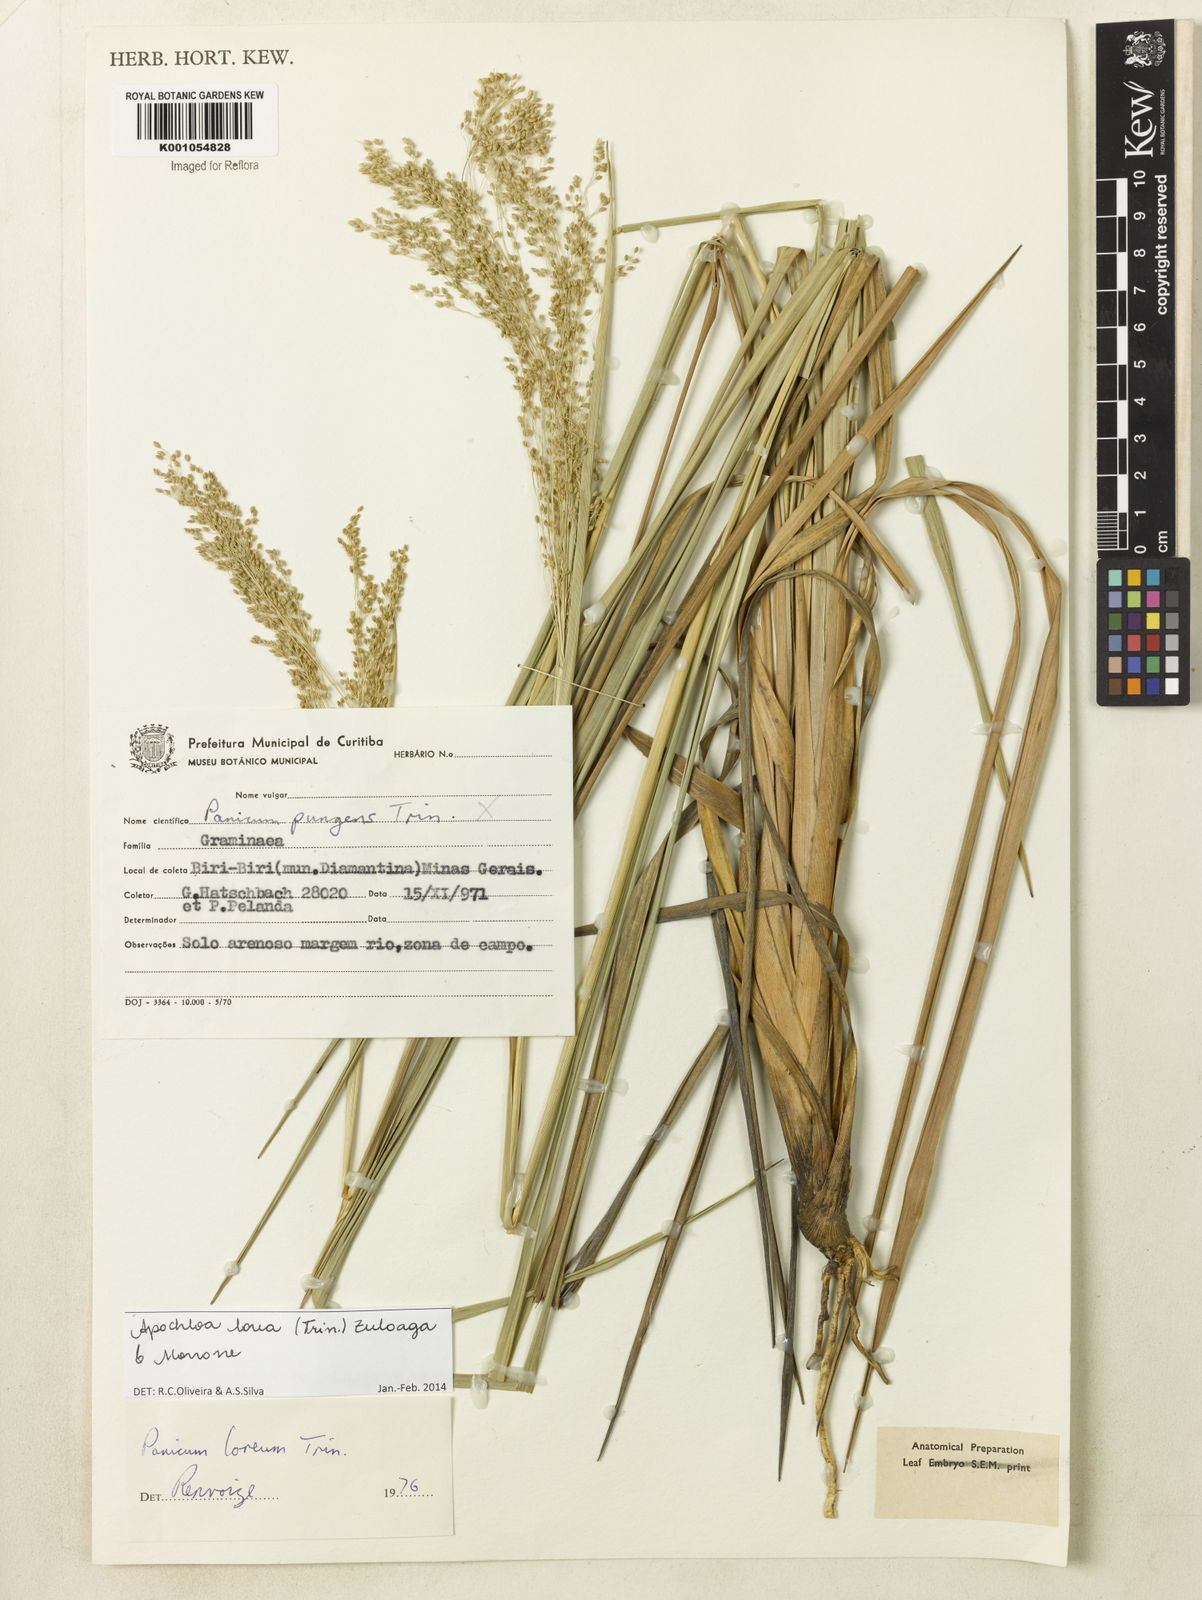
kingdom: Plantae
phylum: Tracheophyta
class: Liliopsida
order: Poales
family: Poaceae
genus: Apochloa
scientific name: Apochloa lorea
